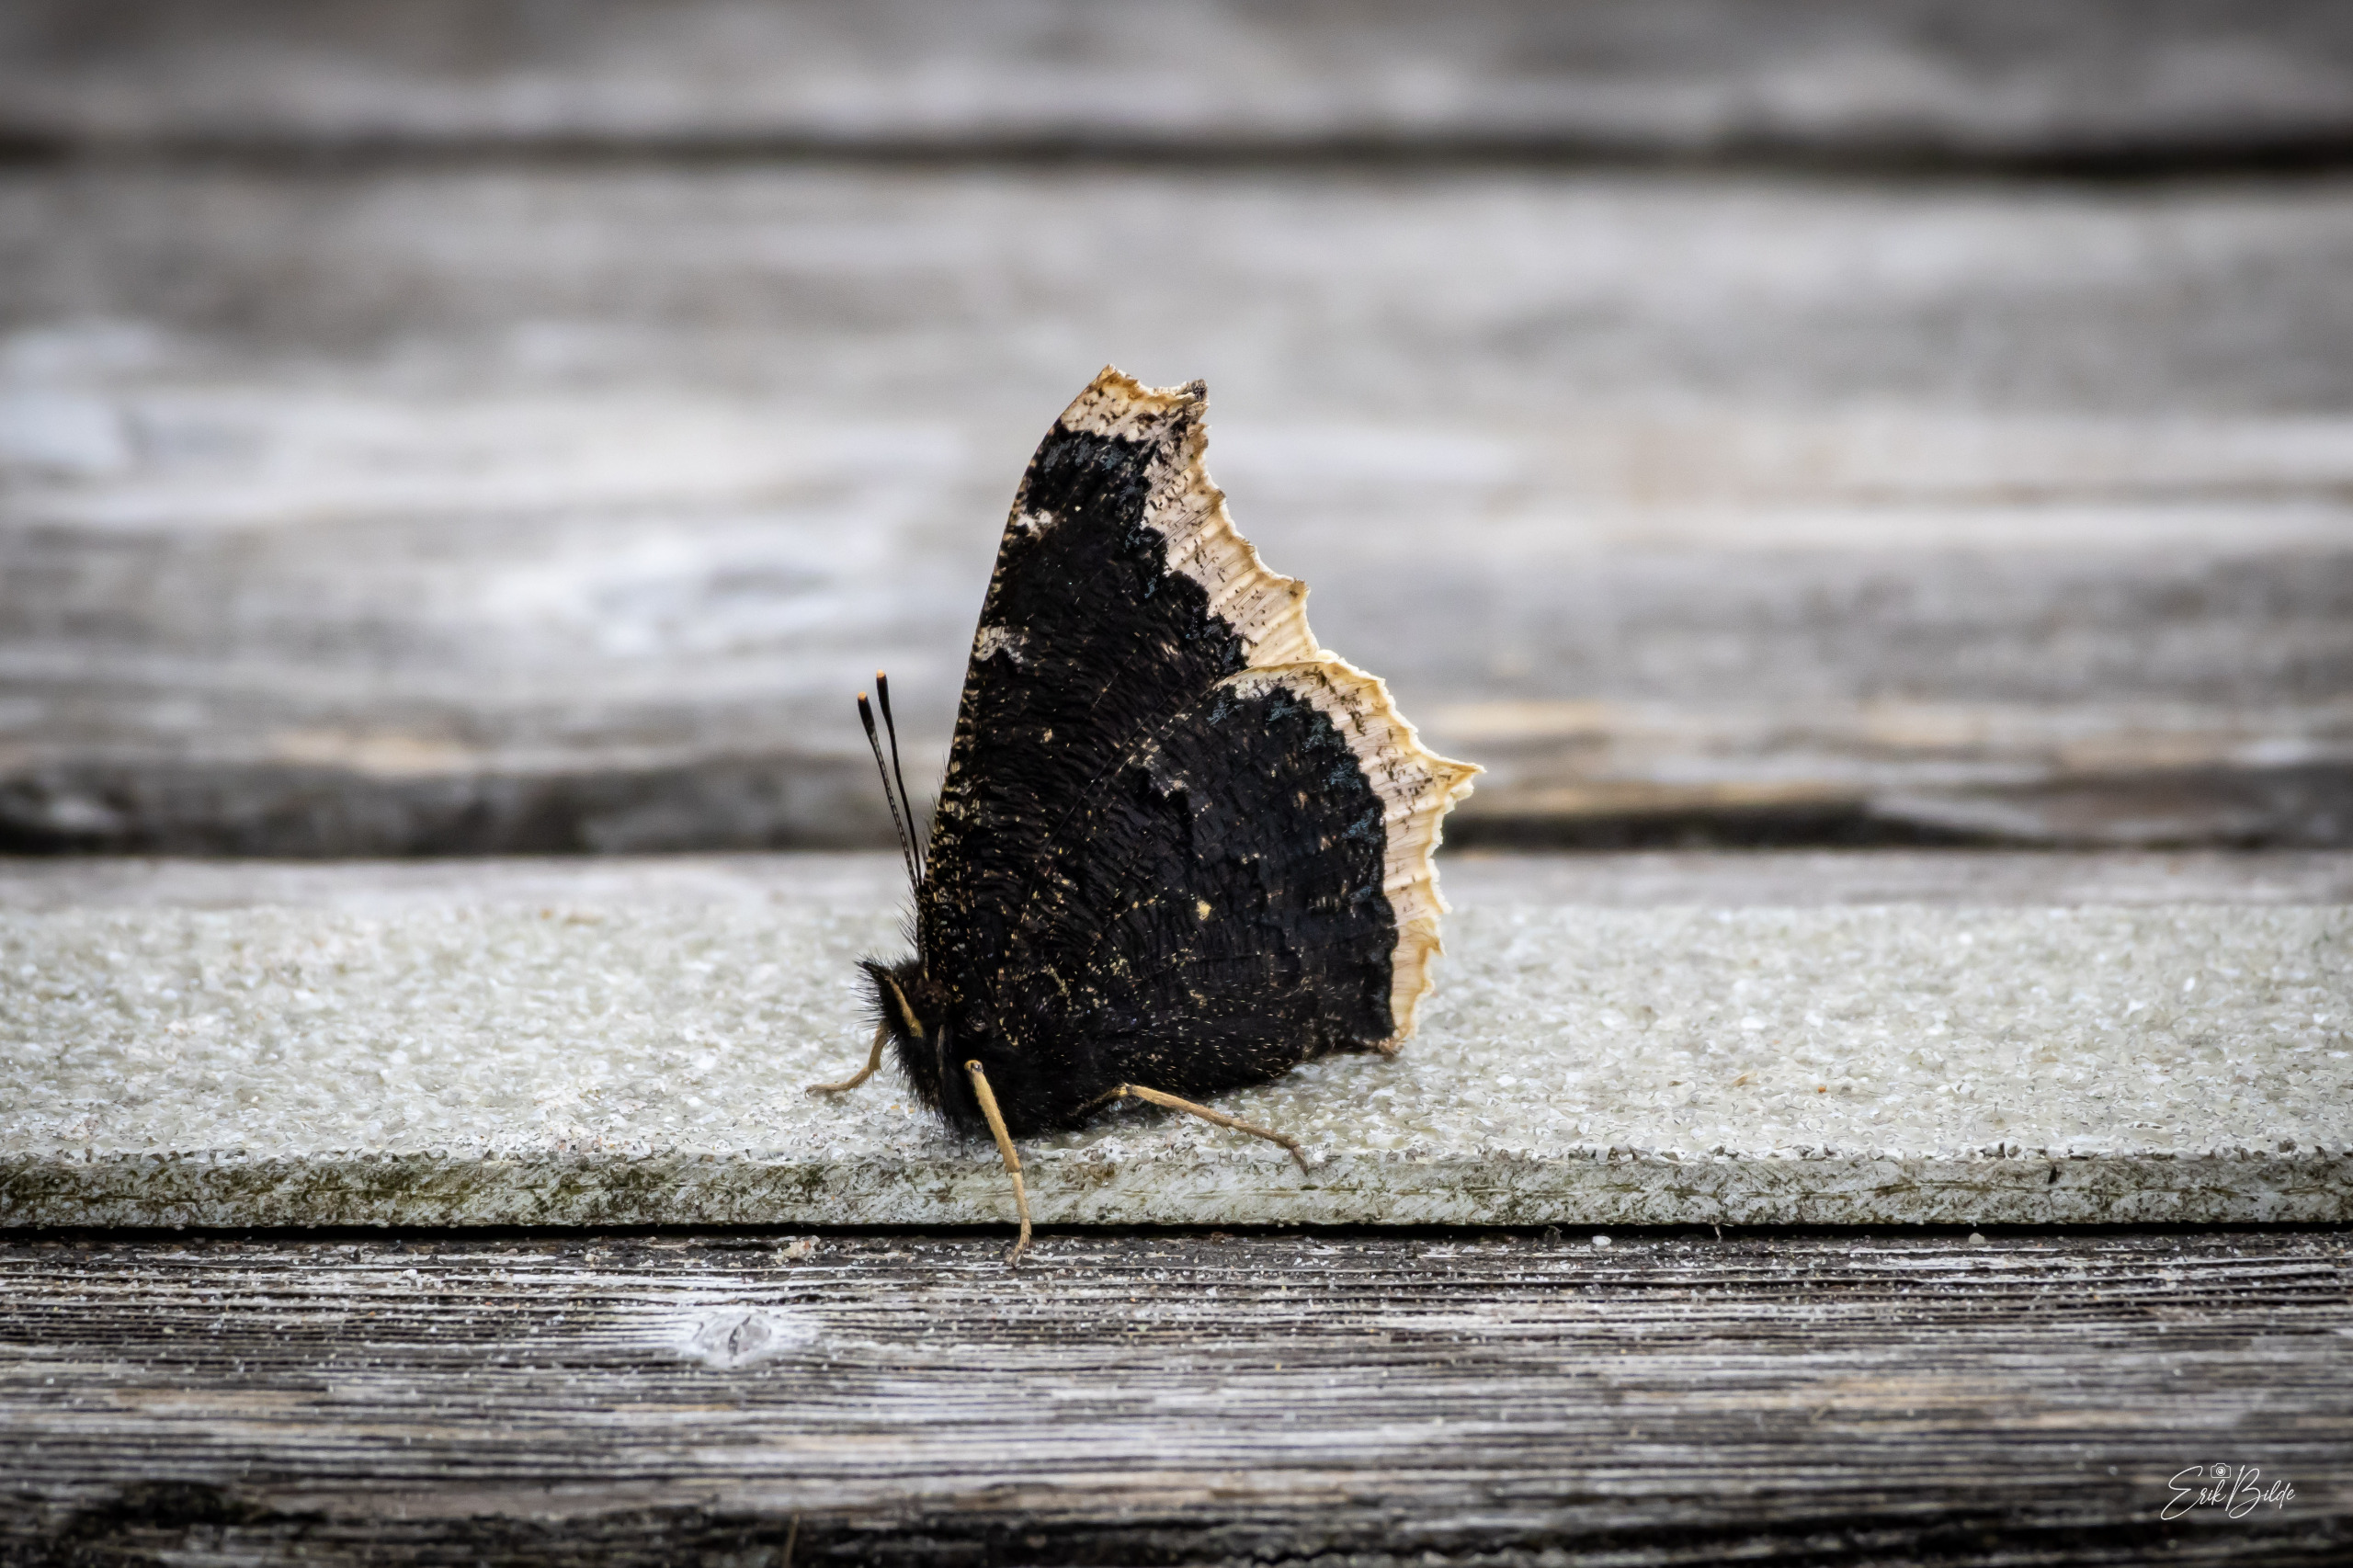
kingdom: Animalia
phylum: Arthropoda
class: Insecta
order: Lepidoptera
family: Nymphalidae
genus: Nymphalis
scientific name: Nymphalis antiopa
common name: Sørgekåbe
